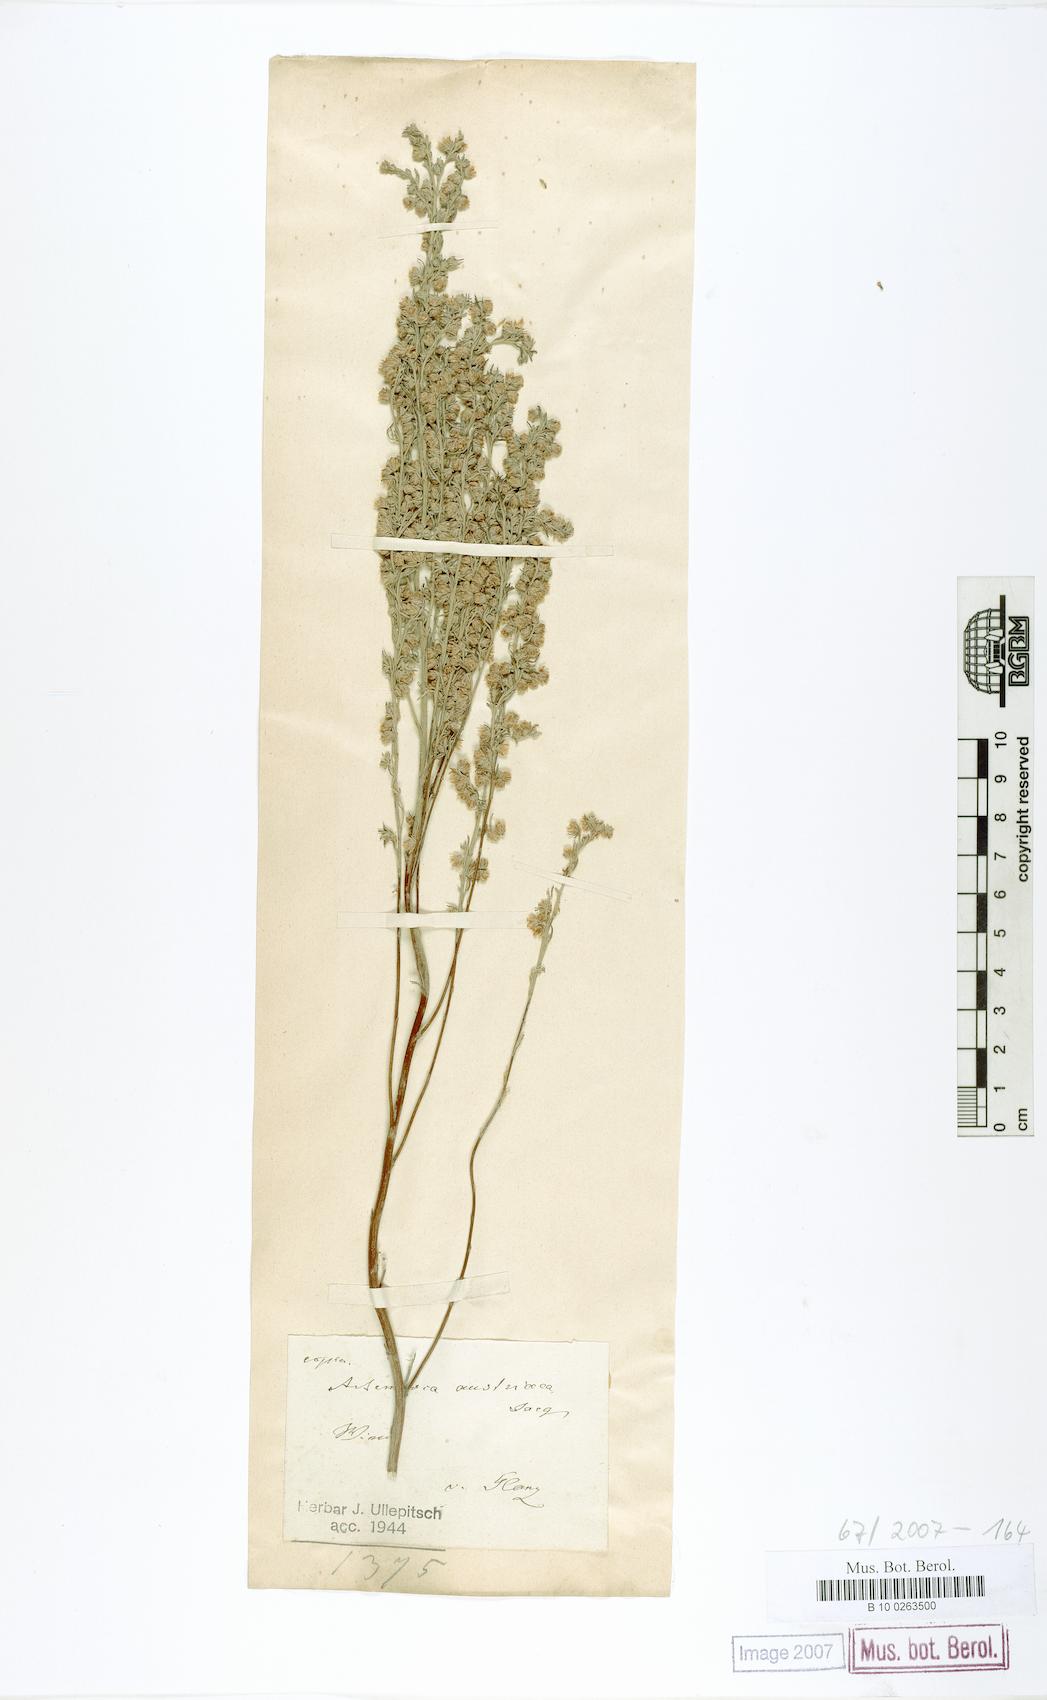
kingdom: Plantae
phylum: Tracheophyta
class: Magnoliopsida
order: Asterales
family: Asteraceae
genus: Artemisia
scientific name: Artemisia austriaca
